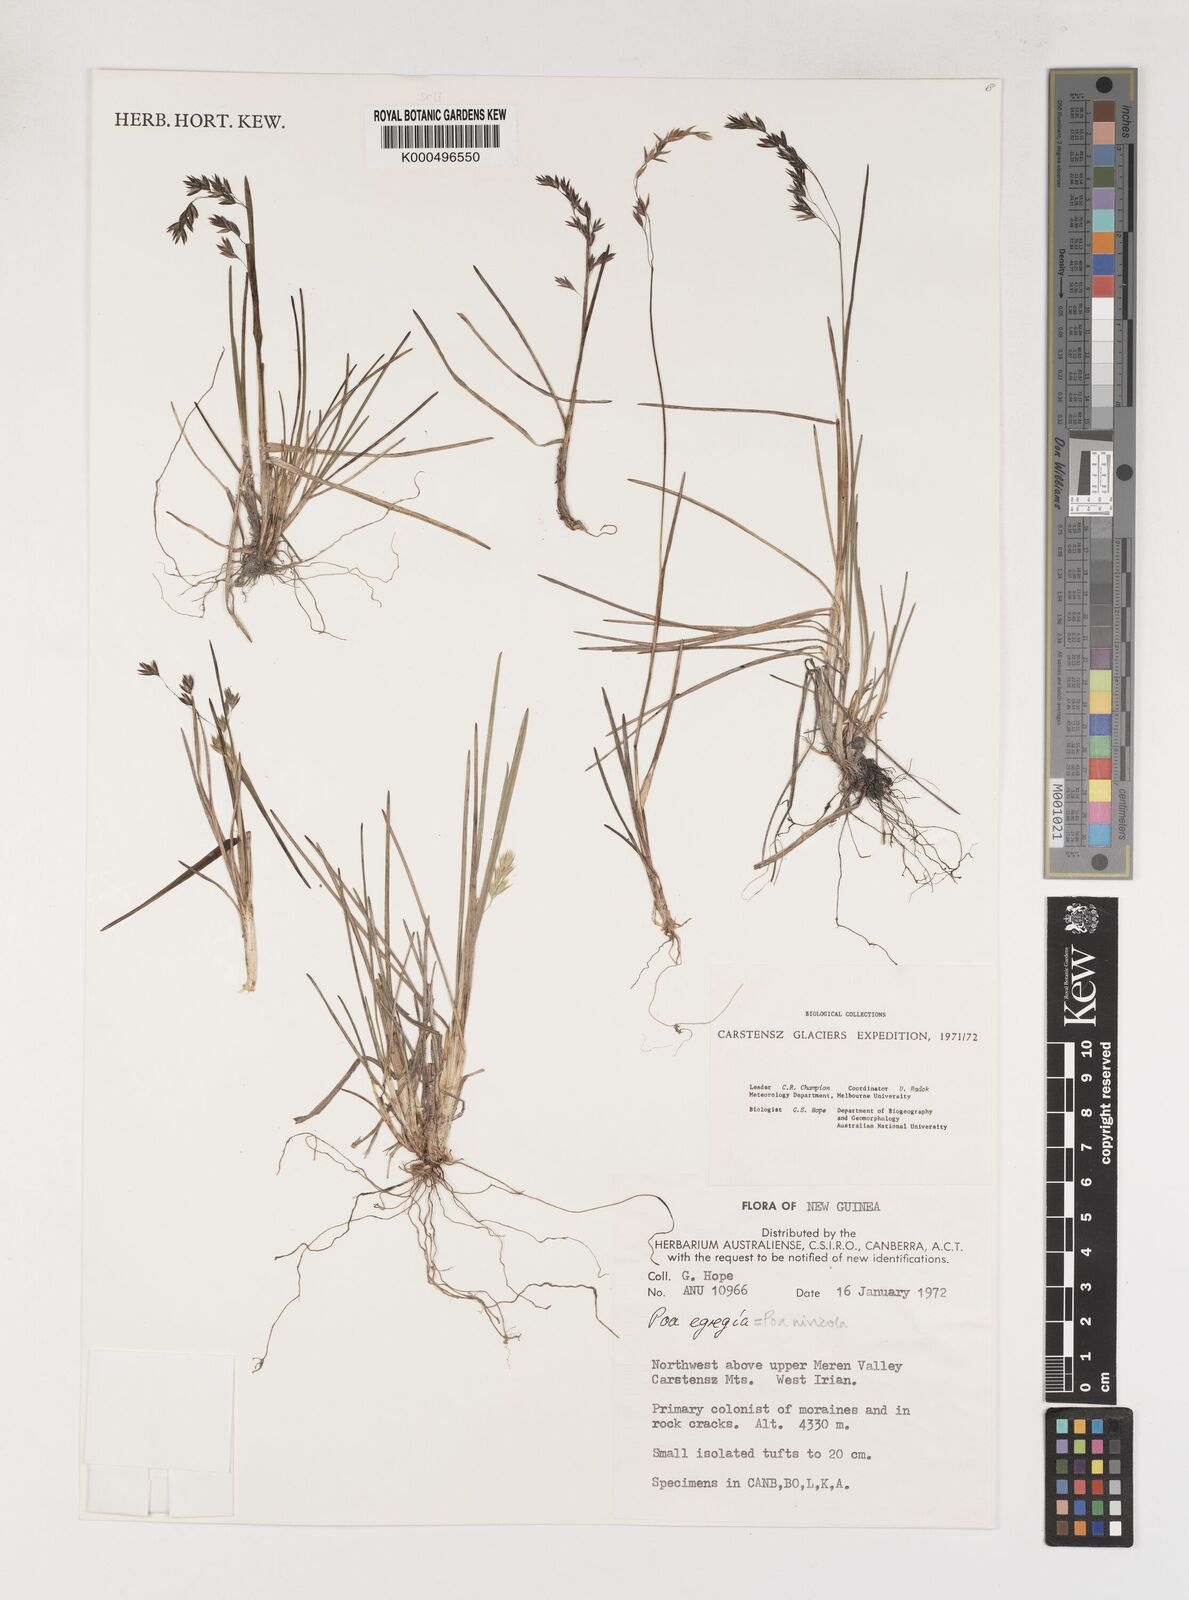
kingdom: Plantae
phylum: Tracheophyta
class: Liliopsida
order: Poales
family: Poaceae
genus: Poa
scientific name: Poa
